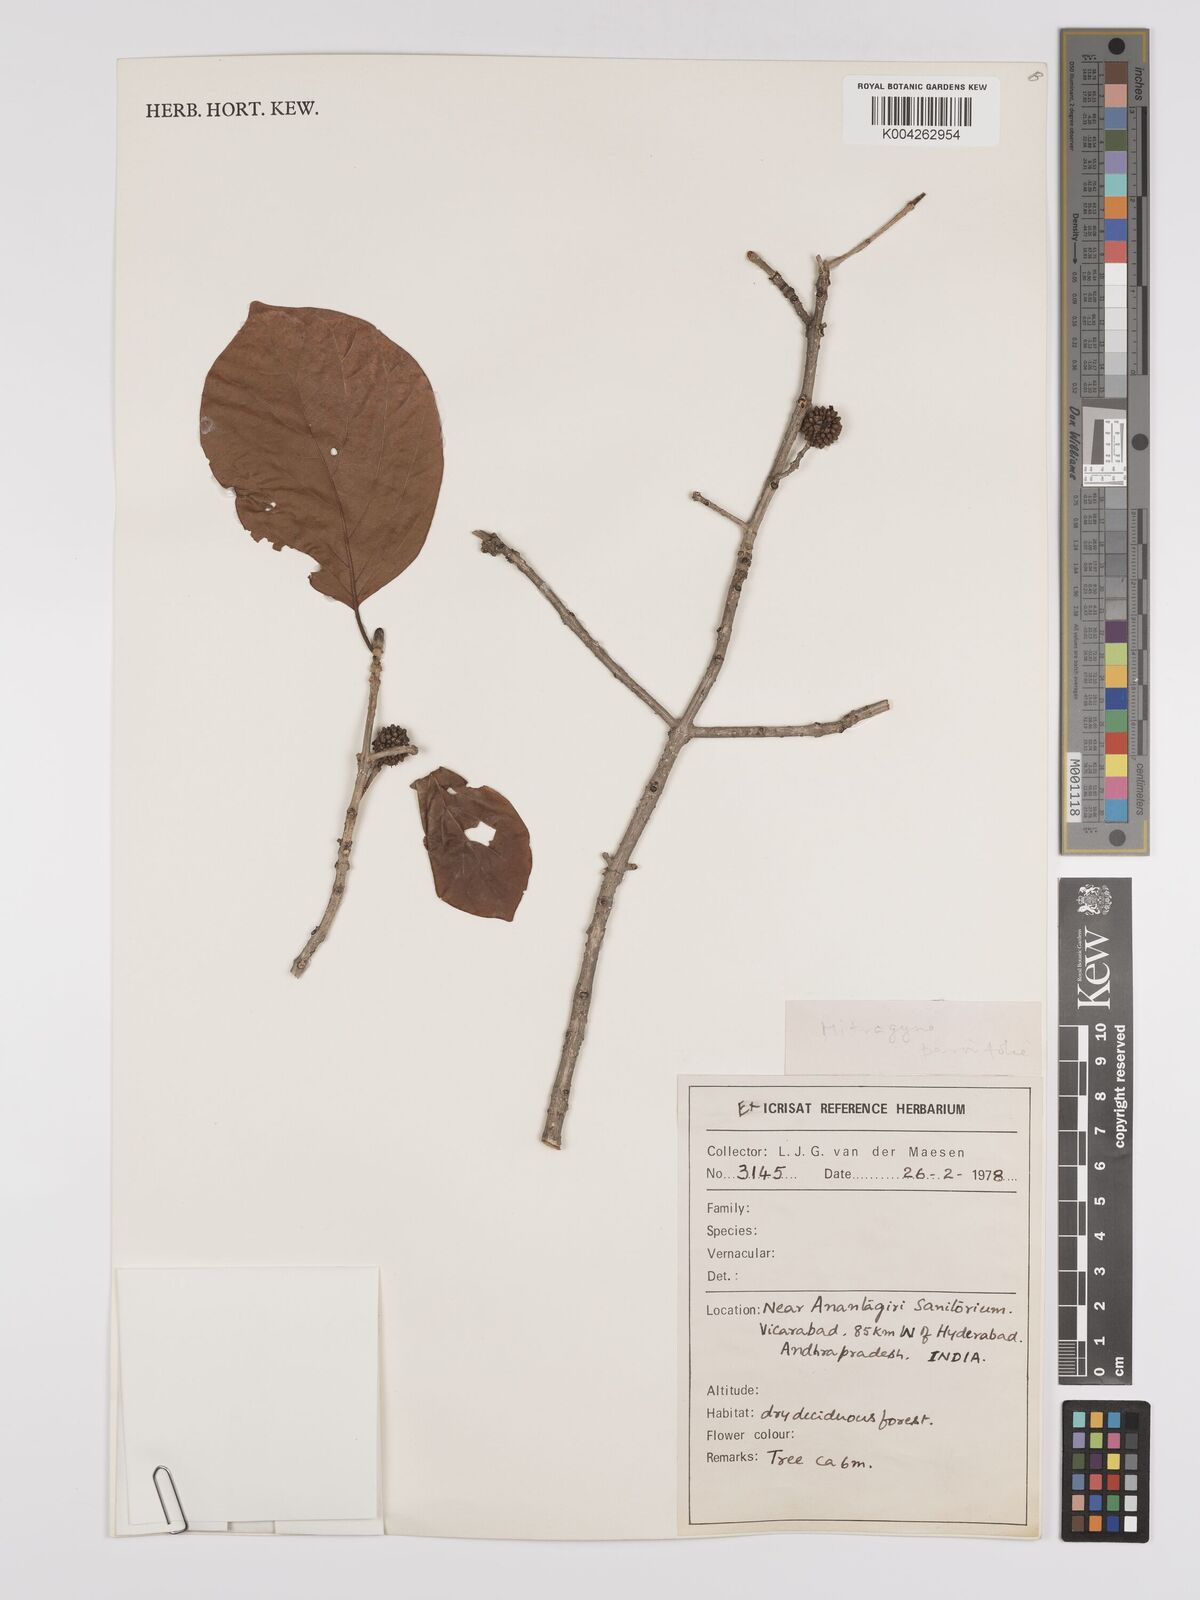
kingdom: Plantae
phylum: Tracheophyta
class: Magnoliopsida
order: Gentianales
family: Rubiaceae
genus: Mitragyna
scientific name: Mitragyna parvifolia
